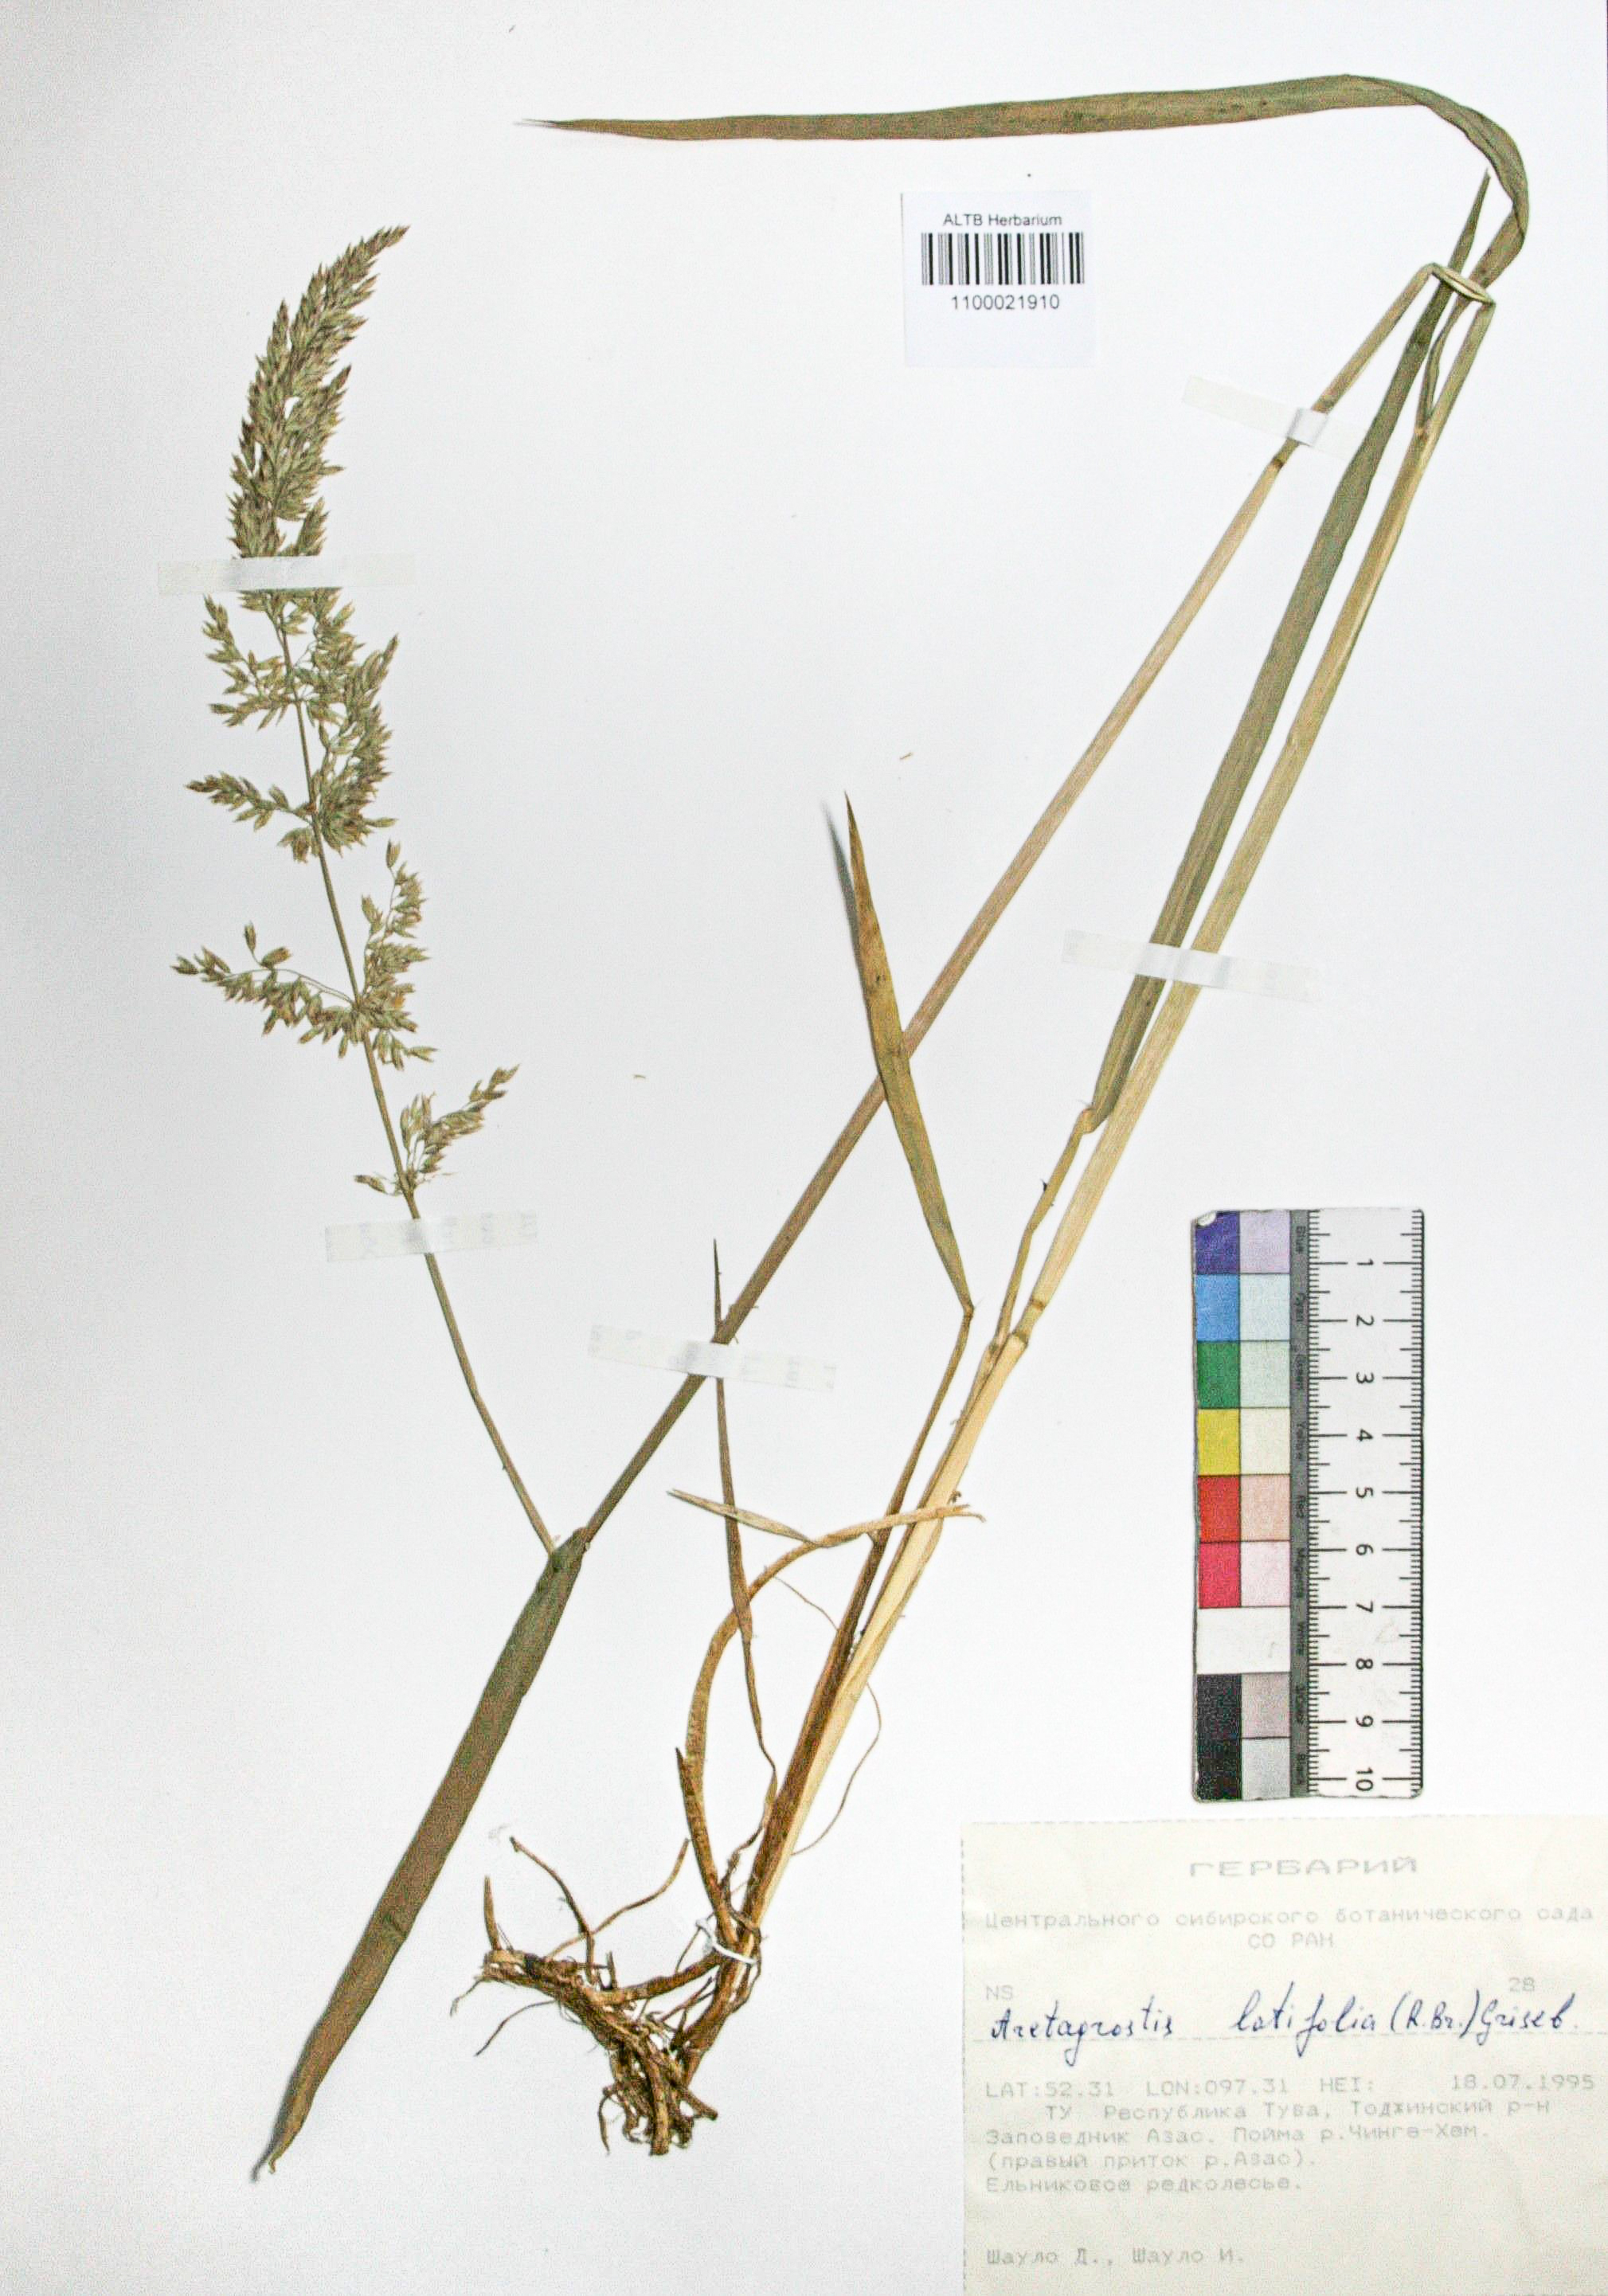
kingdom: Plantae
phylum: Tracheophyta
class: Liliopsida
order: Poales
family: Poaceae
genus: Arctagrostis
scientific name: Arctagrostis latifolia
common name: Arctic grass
